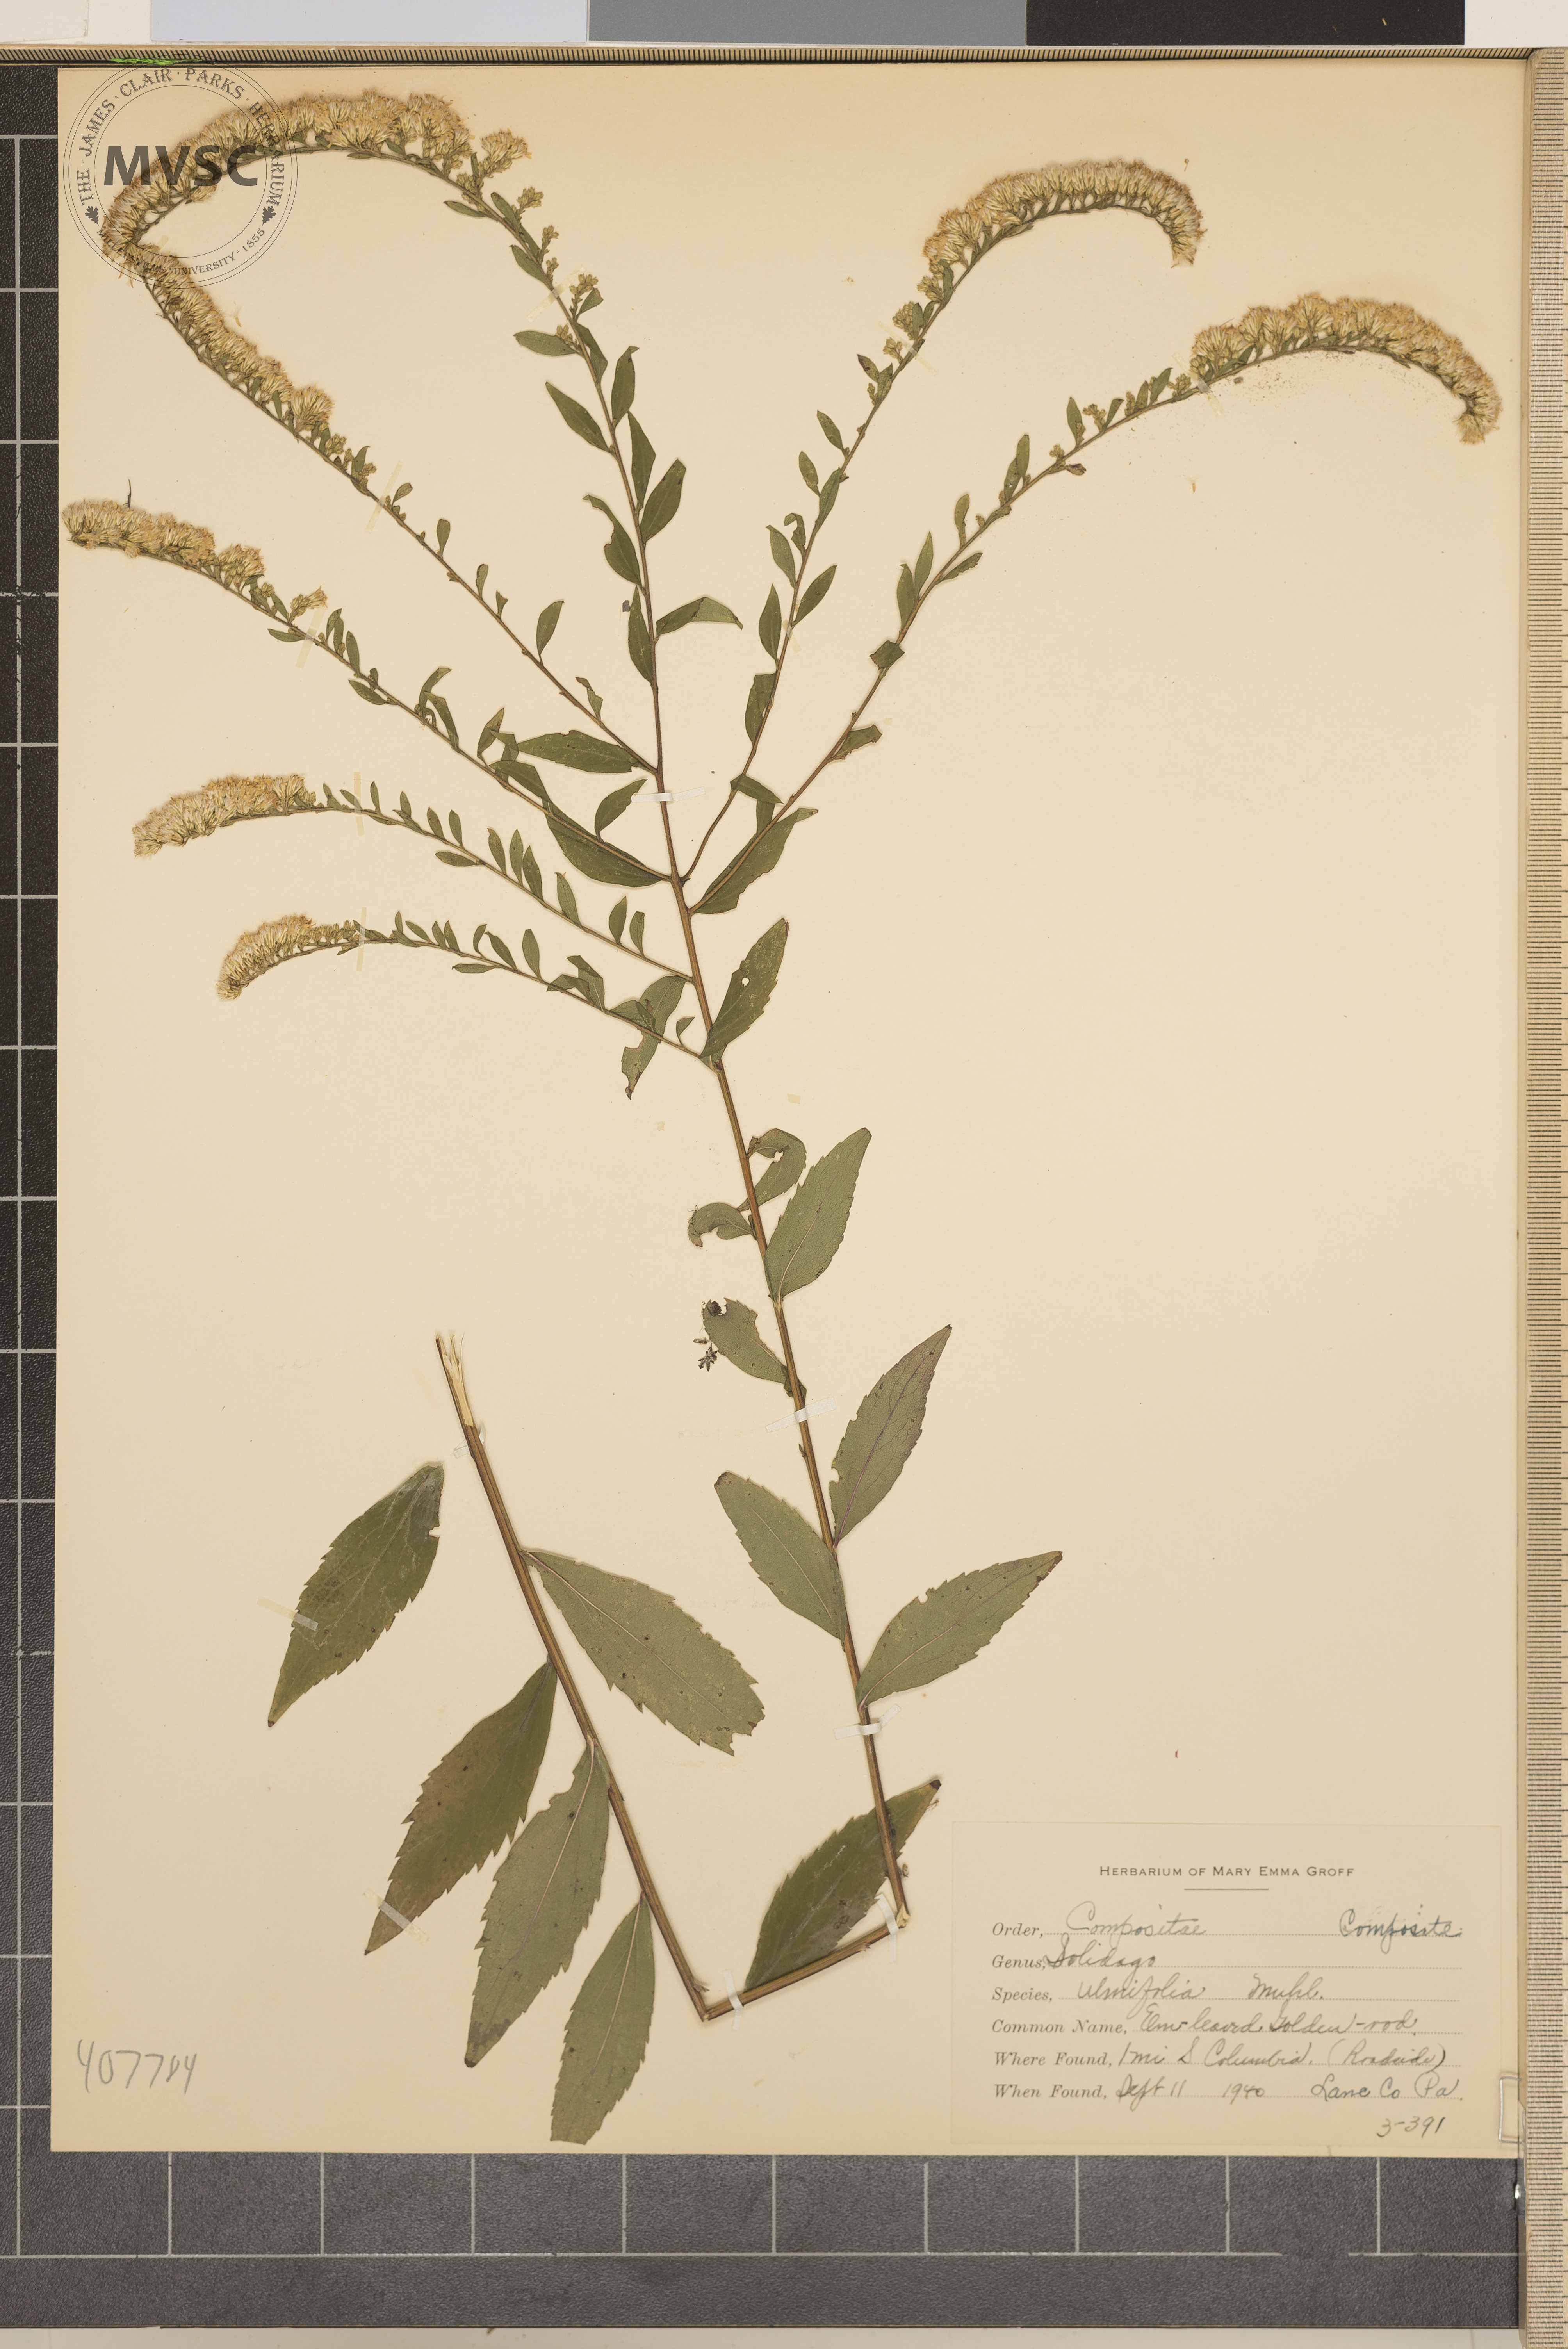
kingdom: Plantae
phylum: Tracheophyta
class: Magnoliopsida
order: Asterales
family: Asteraceae
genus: Solidago
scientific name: Solidago ulmifolia
